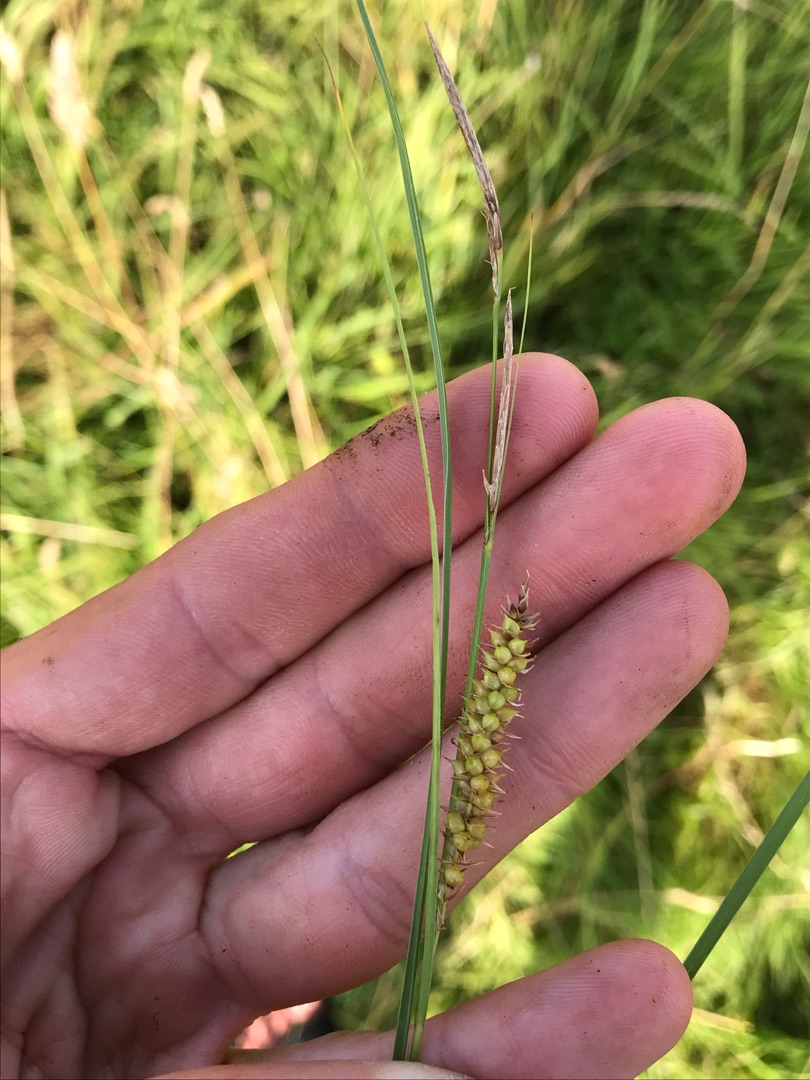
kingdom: Plantae
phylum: Tracheophyta
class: Liliopsida
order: Poales
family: Cyperaceae
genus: Carex
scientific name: Carex rostrata
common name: Næb-star
